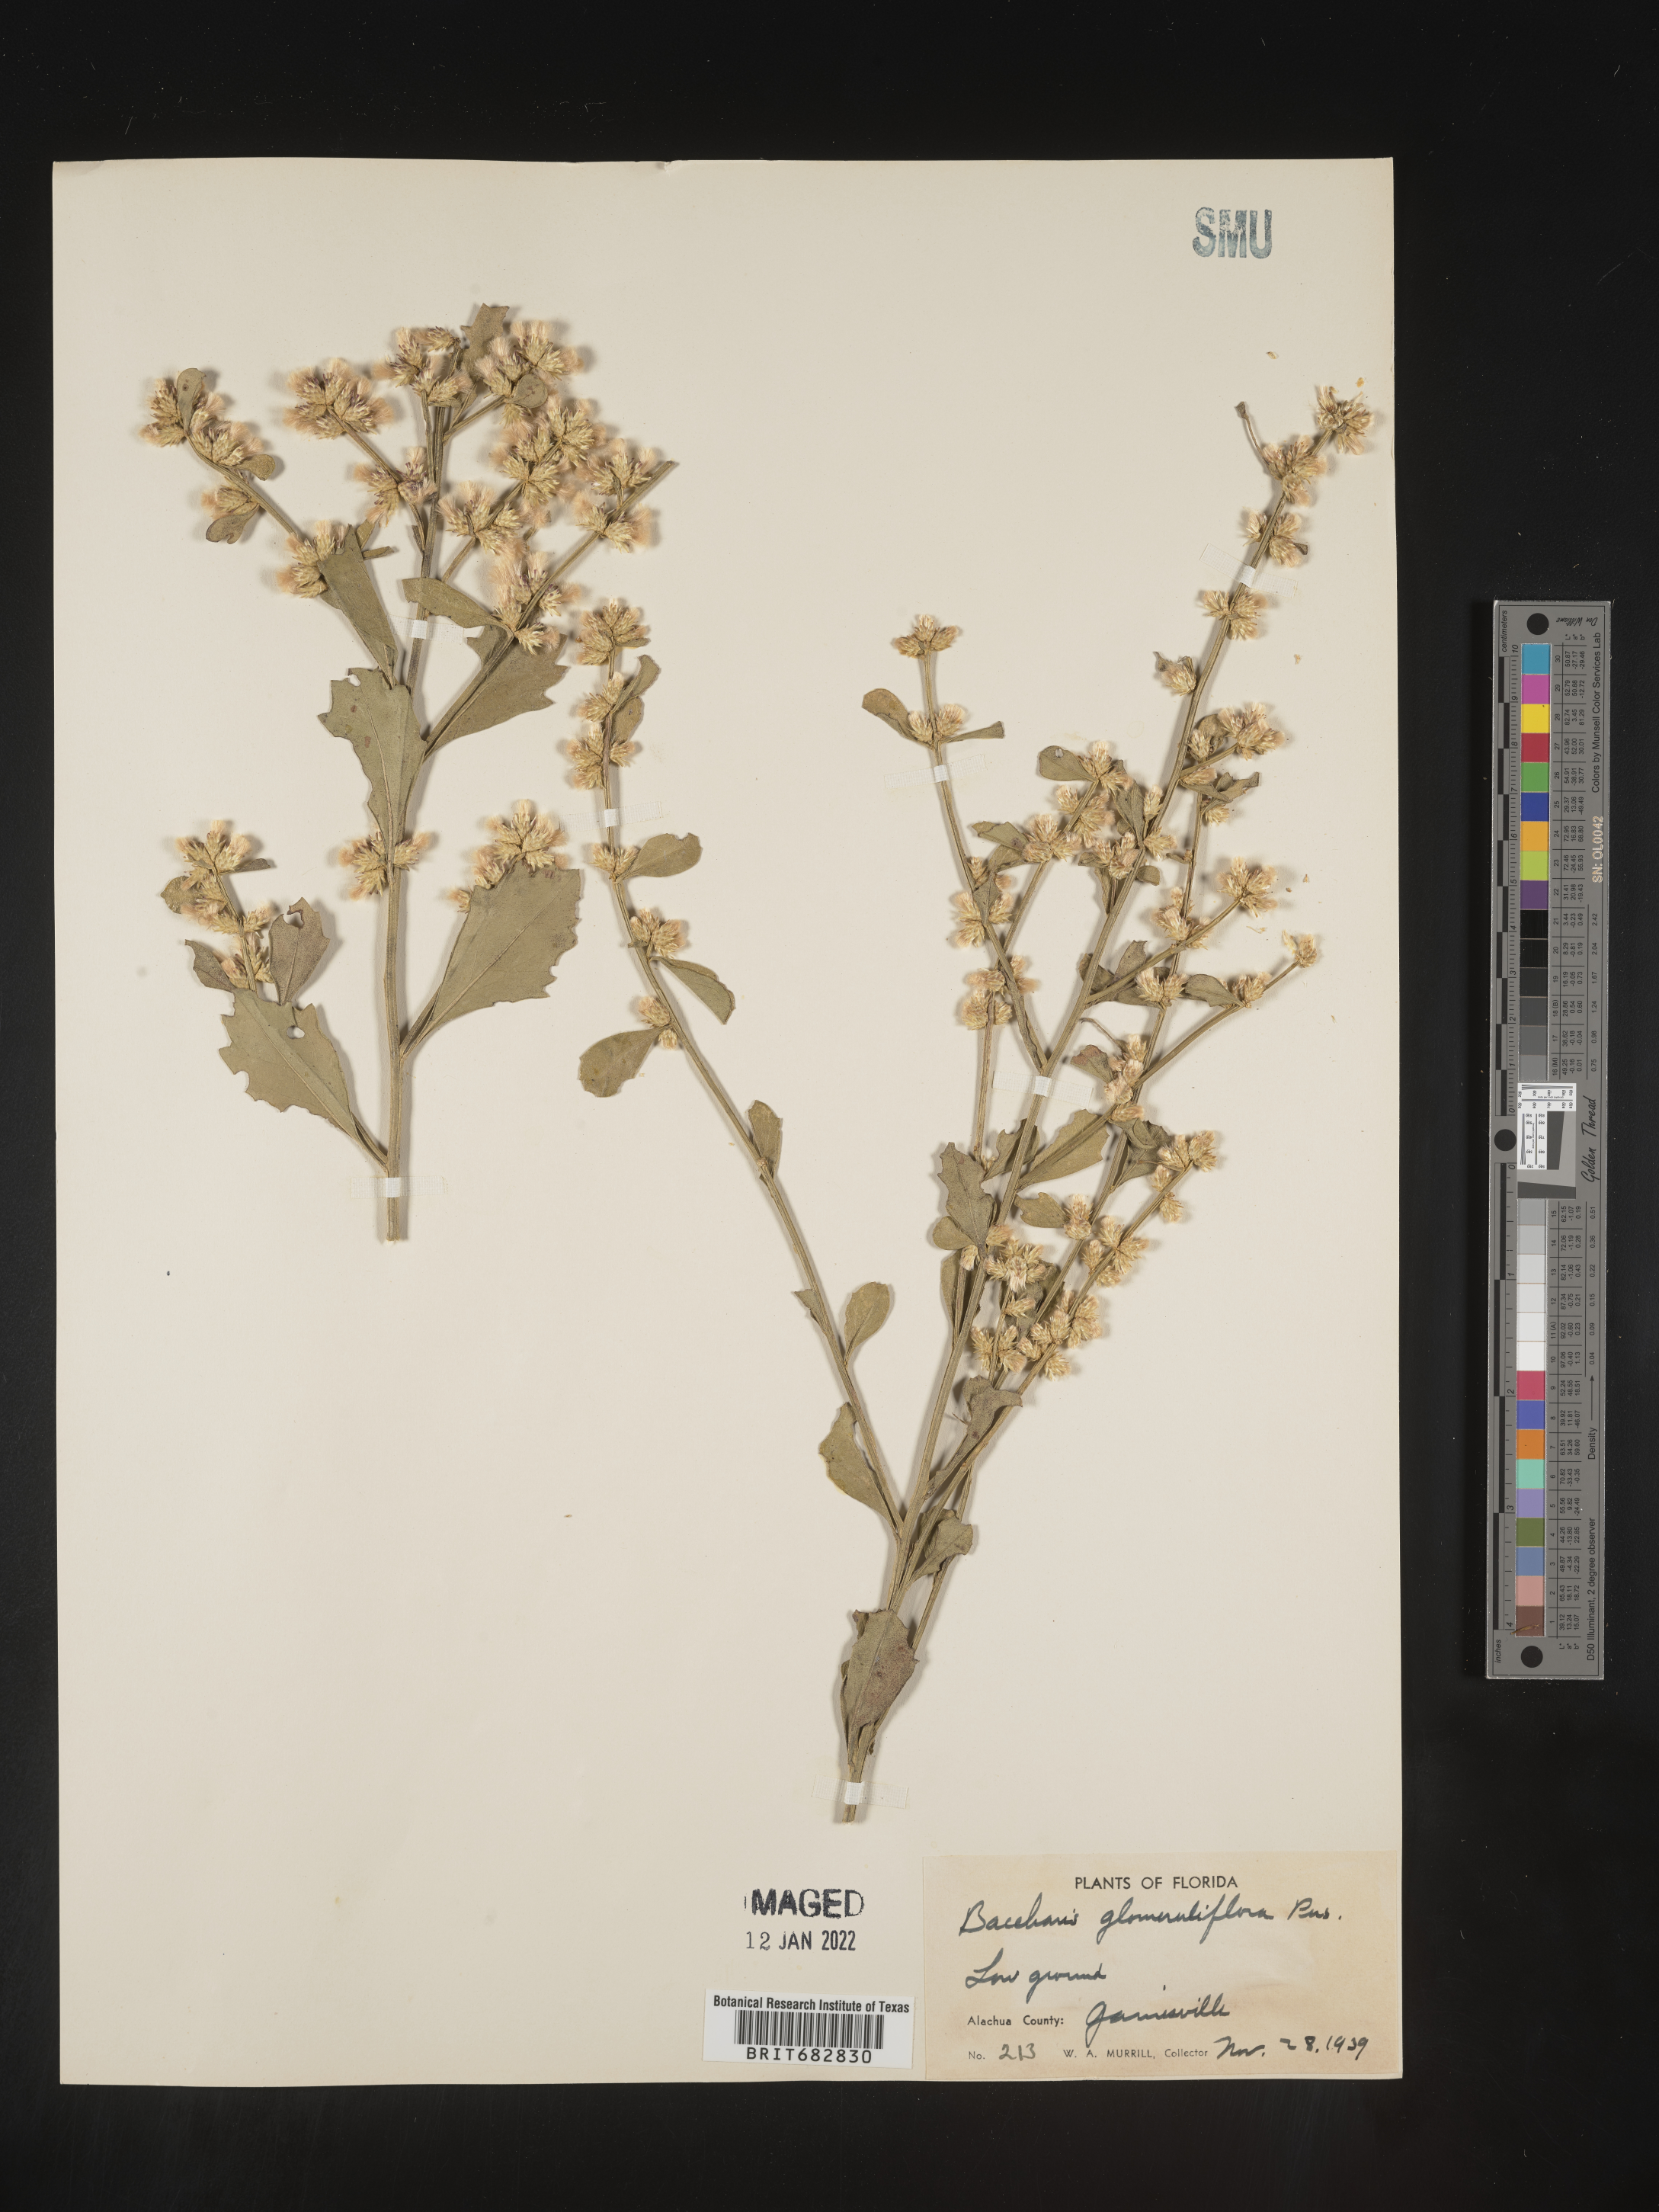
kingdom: Plantae
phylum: Tracheophyta
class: Magnoliopsida
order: Asterales
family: Asteraceae
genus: Baccharis
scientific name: Baccharis glomeruliflora
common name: Silverling groundsel bush
